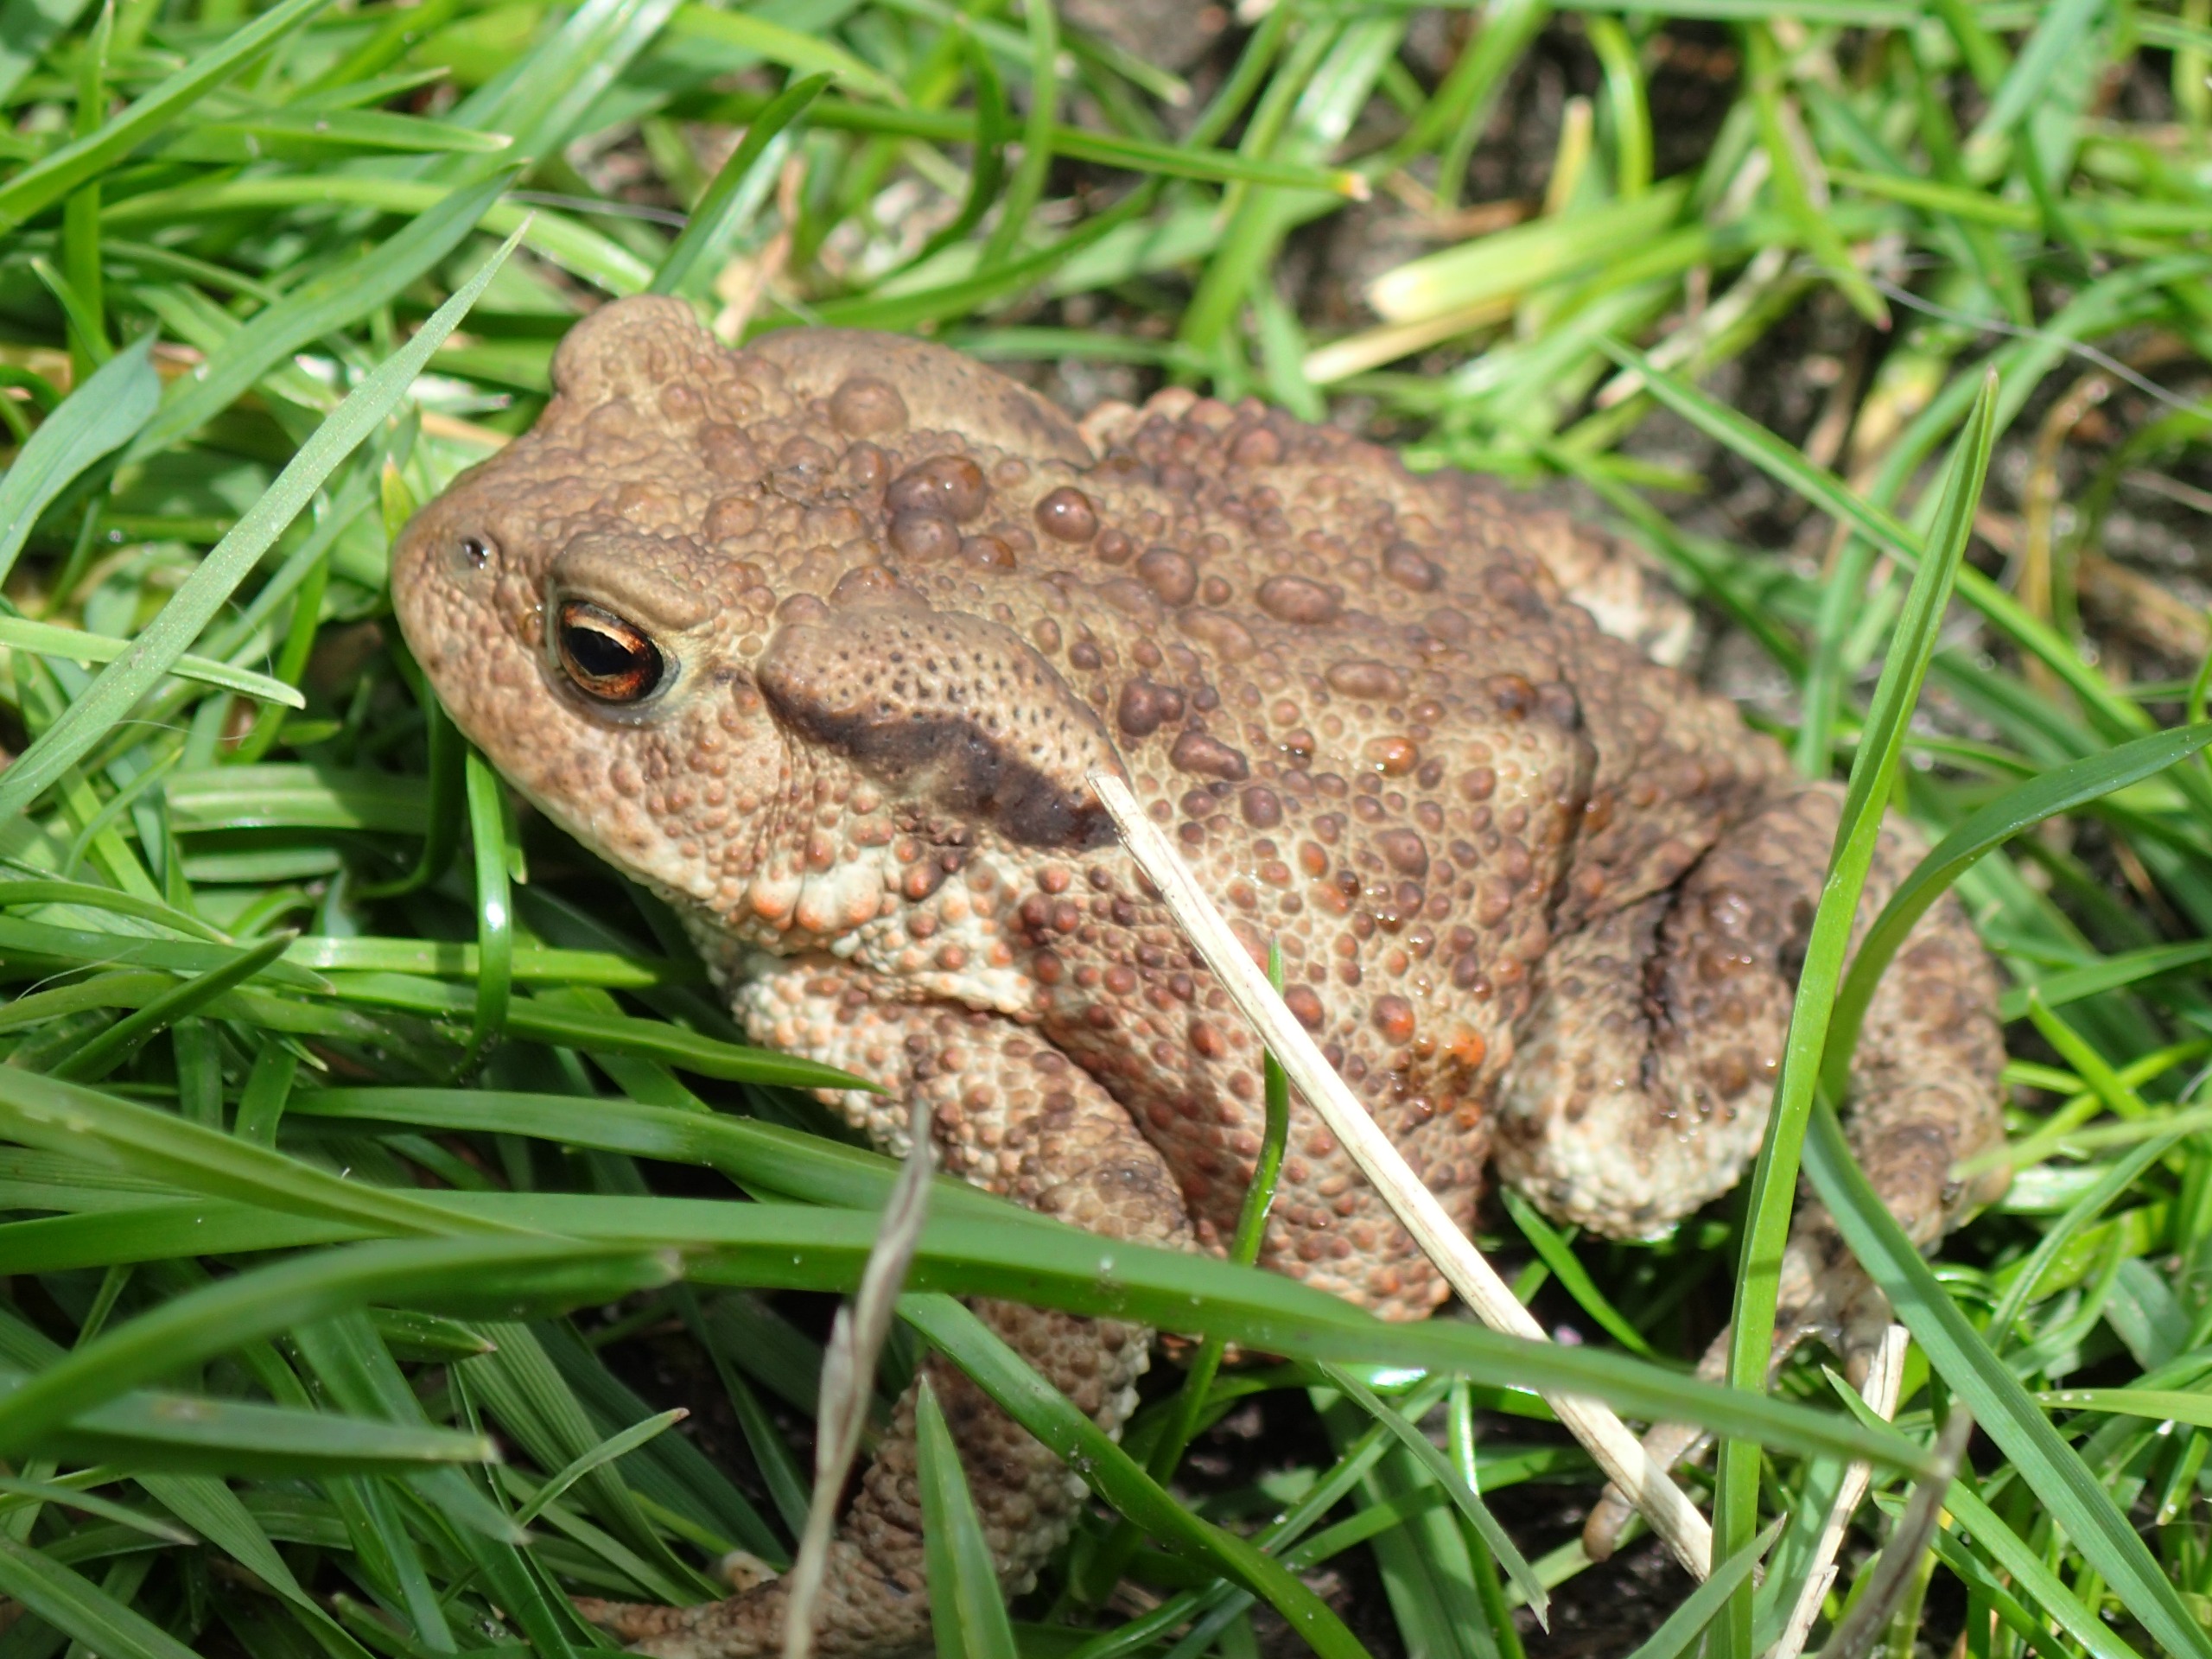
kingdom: Animalia
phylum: Chordata
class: Amphibia
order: Anura
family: Bufonidae
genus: Bufo
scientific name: Bufo bufo
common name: Skrubtudse
